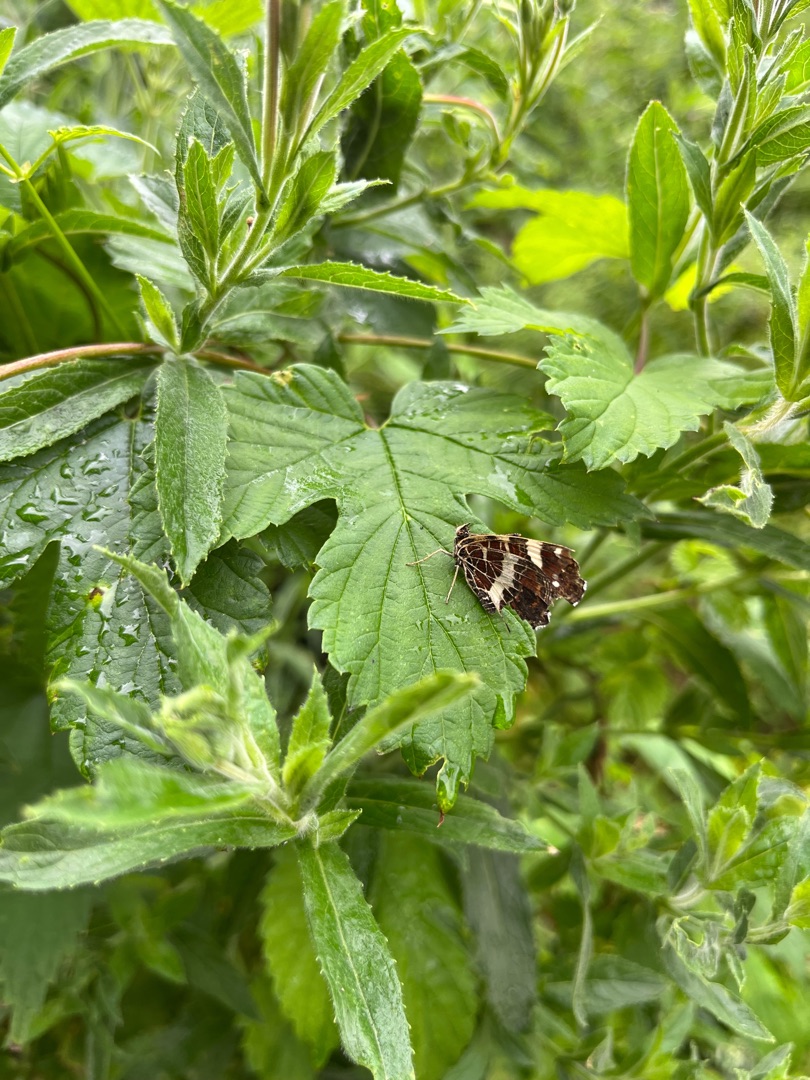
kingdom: Animalia
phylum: Arthropoda
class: Insecta
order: Lepidoptera
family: Nymphalidae
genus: Araschnia
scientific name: Araschnia levana
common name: Nældesommerfugl
